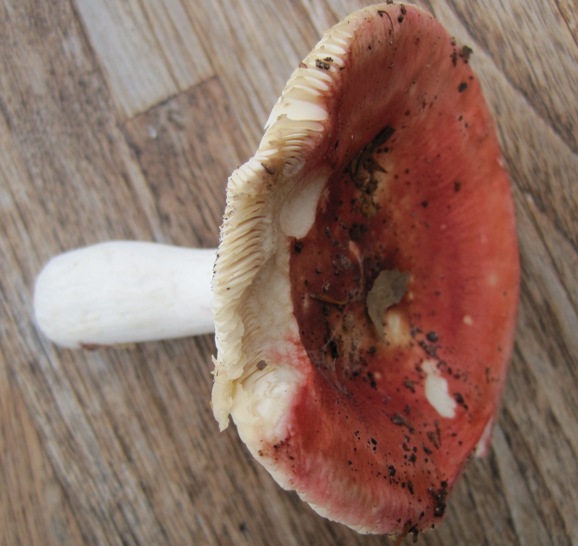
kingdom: Fungi
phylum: Basidiomycota
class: Agaricomycetes
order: Russulales
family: Russulaceae
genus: Russula
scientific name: Russula aurora
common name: rosa skørhat
